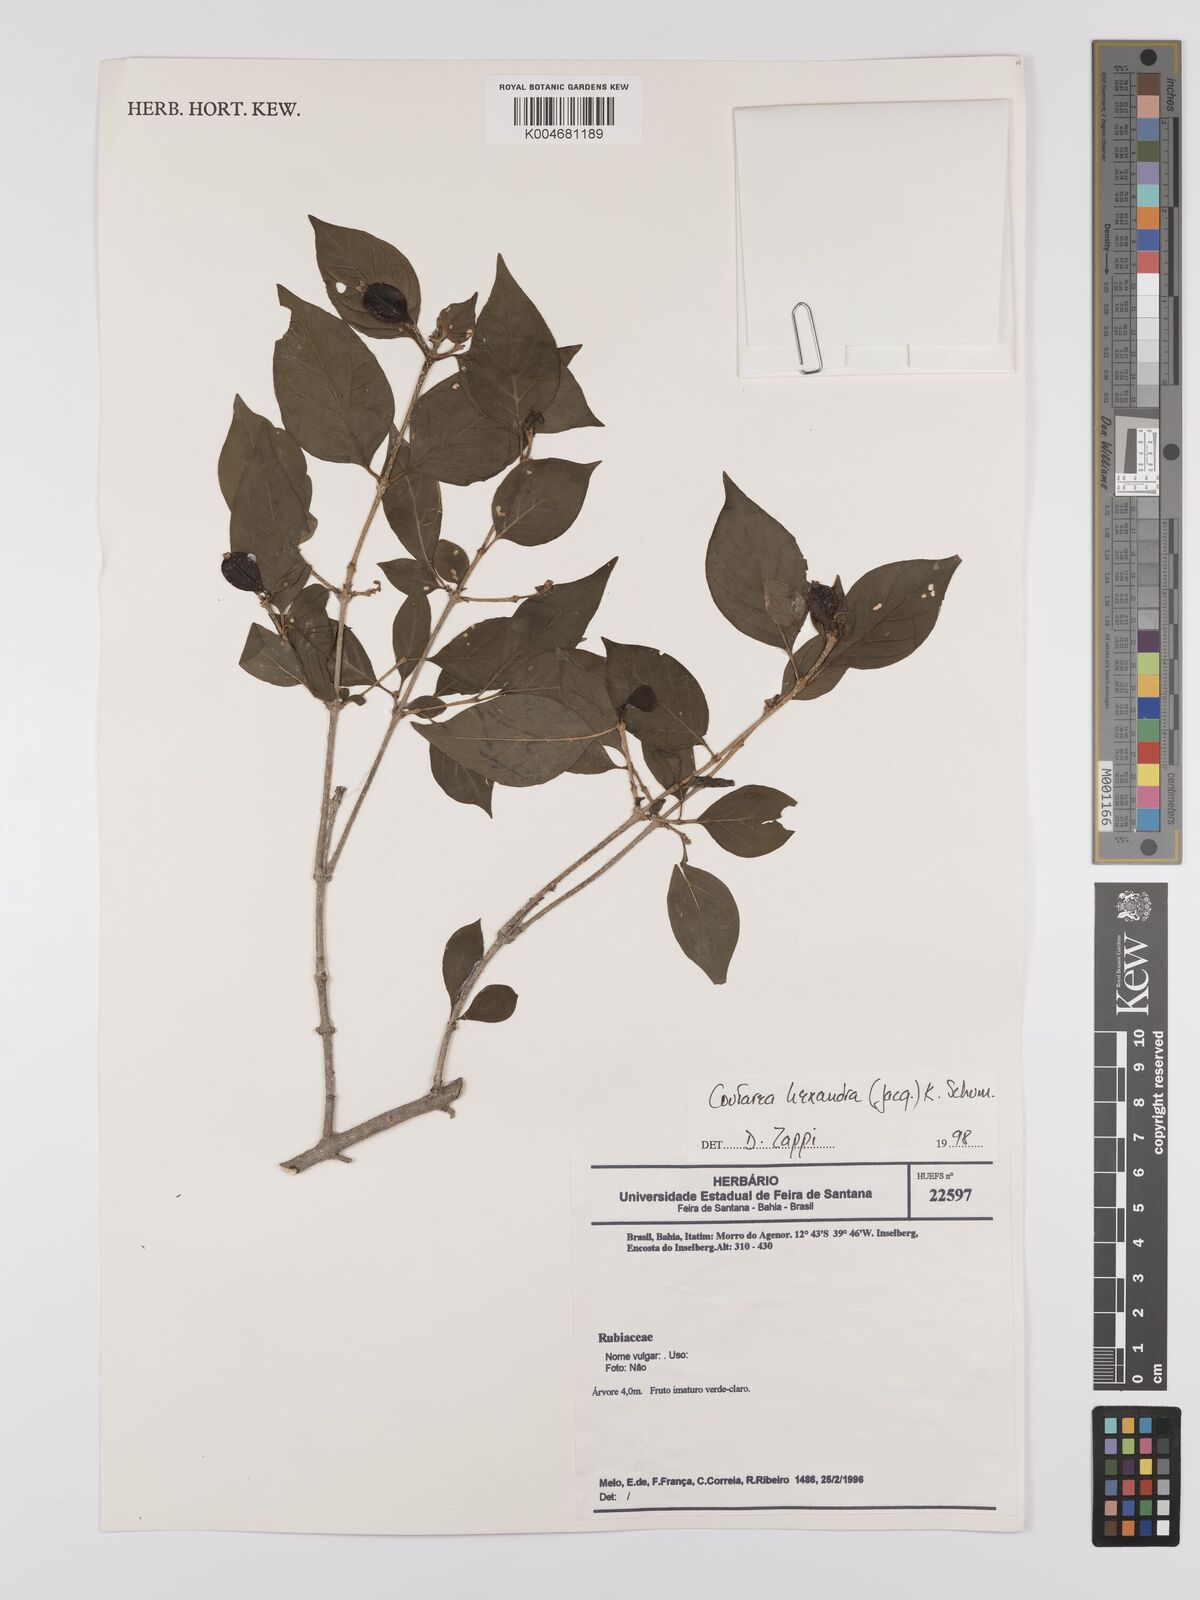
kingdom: Plantae
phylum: Tracheophyta
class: Magnoliopsida
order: Gentianales
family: Rubiaceae
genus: Coutarea
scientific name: Coutarea hexandra
